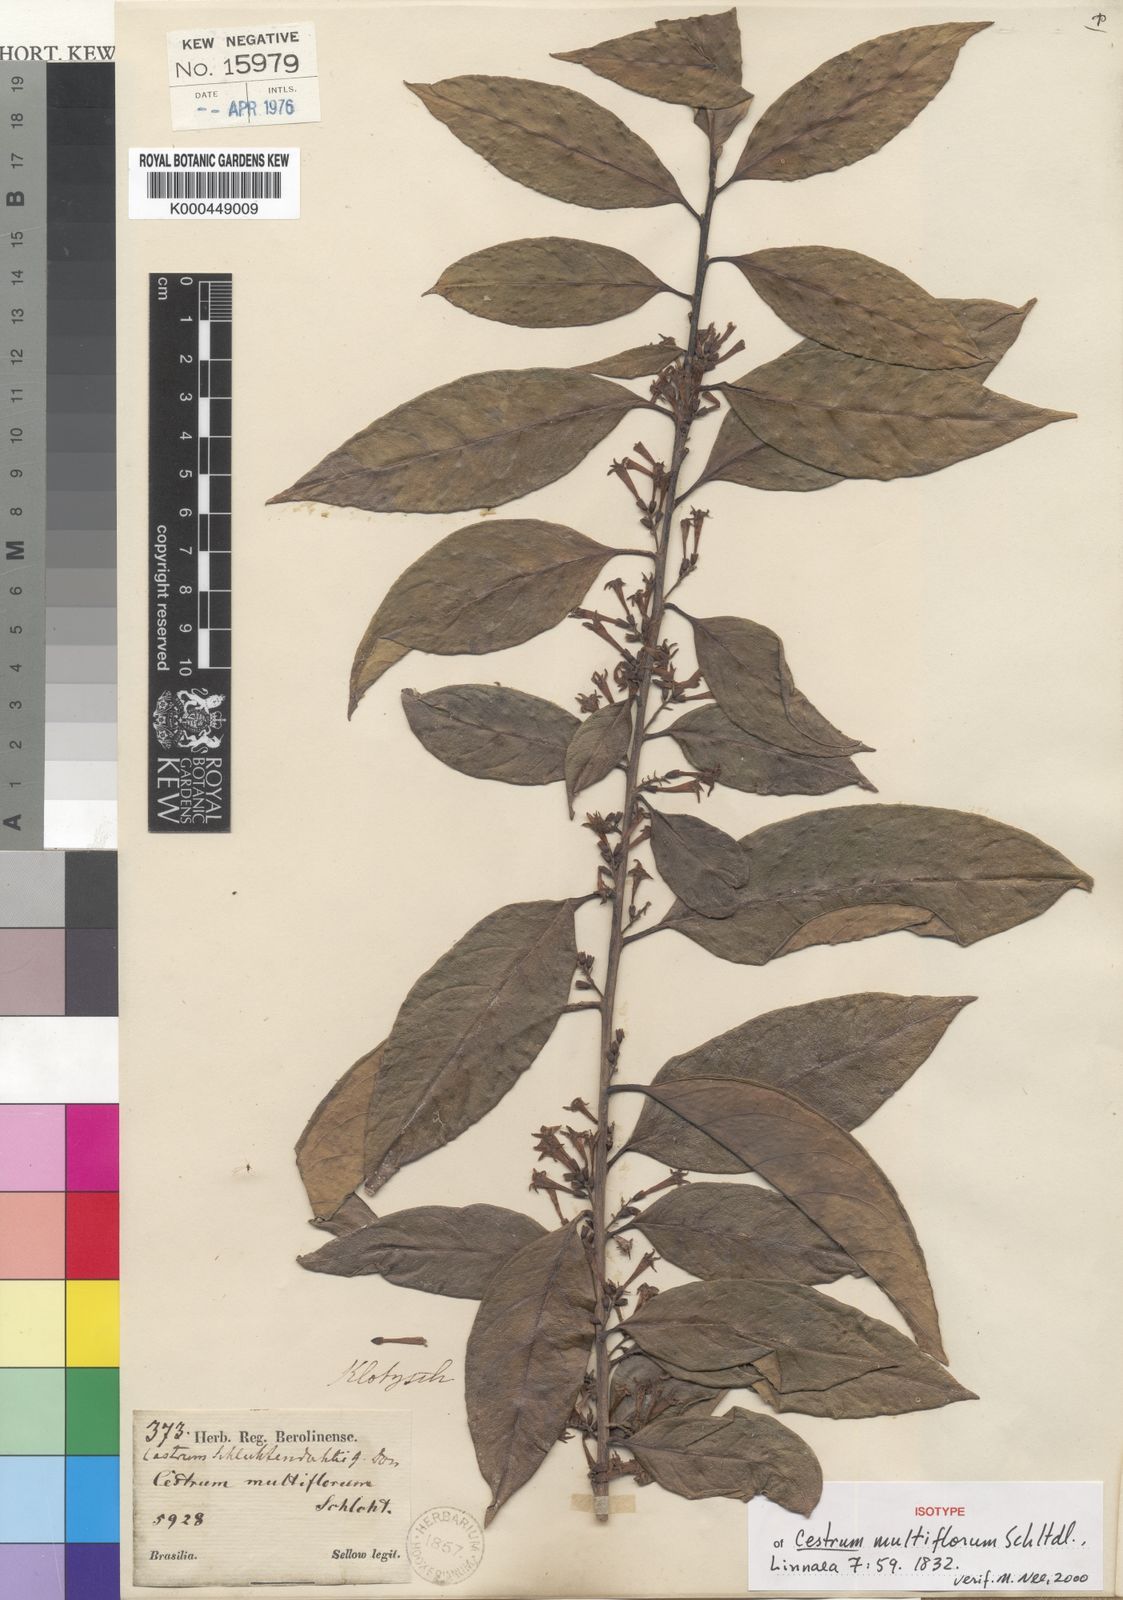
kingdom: Plantae
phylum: Tracheophyta
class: Magnoliopsida
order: Solanales
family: Solanaceae
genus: Cestrum
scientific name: Cestrum nocturnum
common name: Night jessamine
